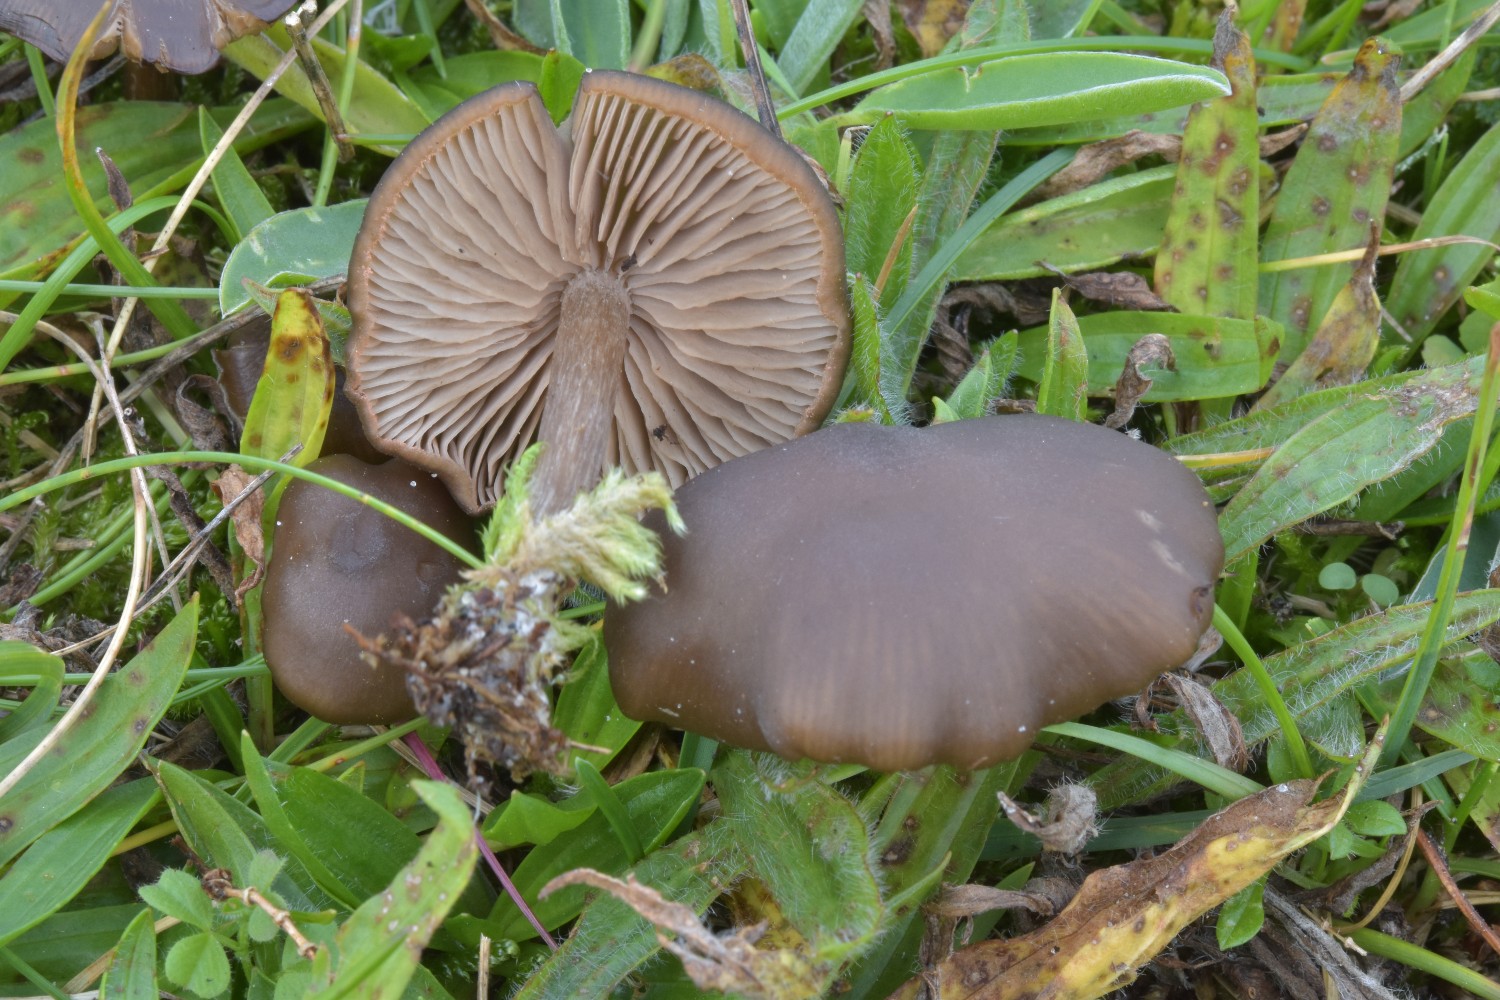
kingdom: Fungi
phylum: Basidiomycota
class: Agaricomycetes
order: Agaricales
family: Entolomataceae
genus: Entoloma
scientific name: Entoloma sericeum
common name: silkeglinsende rødblad
